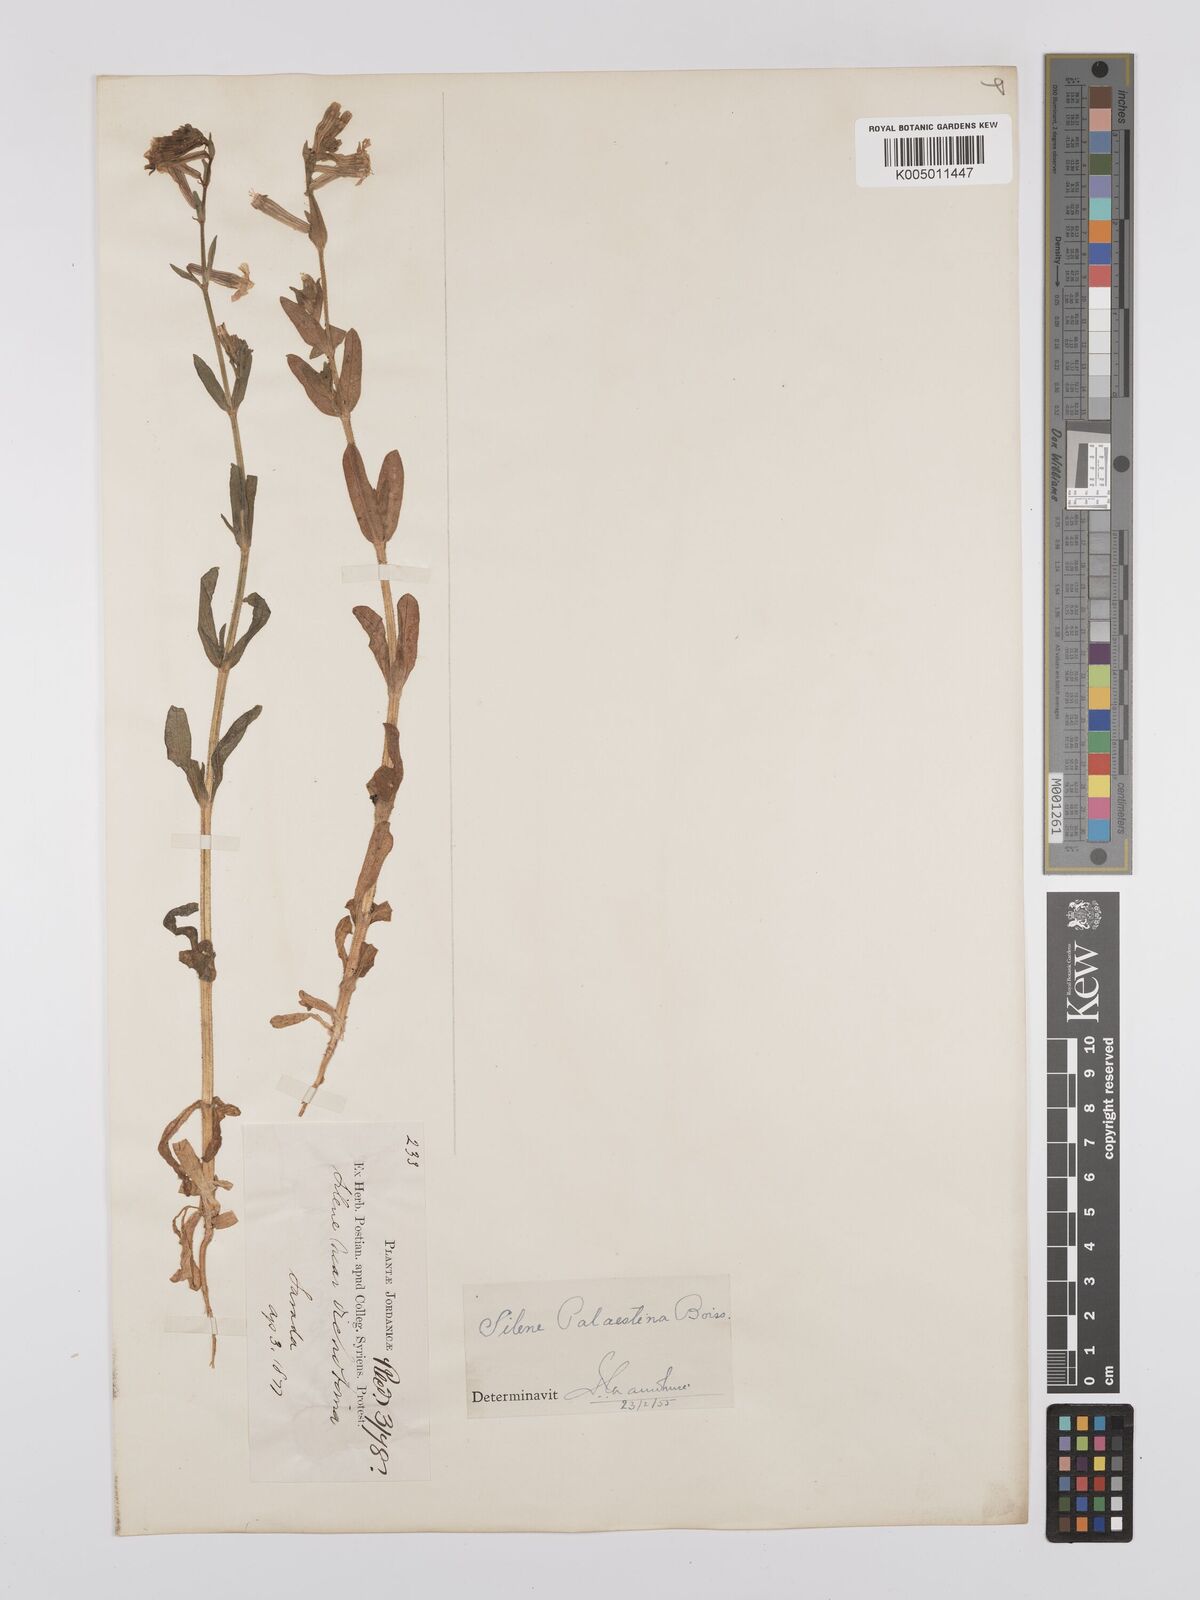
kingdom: Plantae
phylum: Tracheophyta
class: Magnoliopsida
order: Caryophyllales
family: Caryophyllaceae
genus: Silene
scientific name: Silene palaestina
